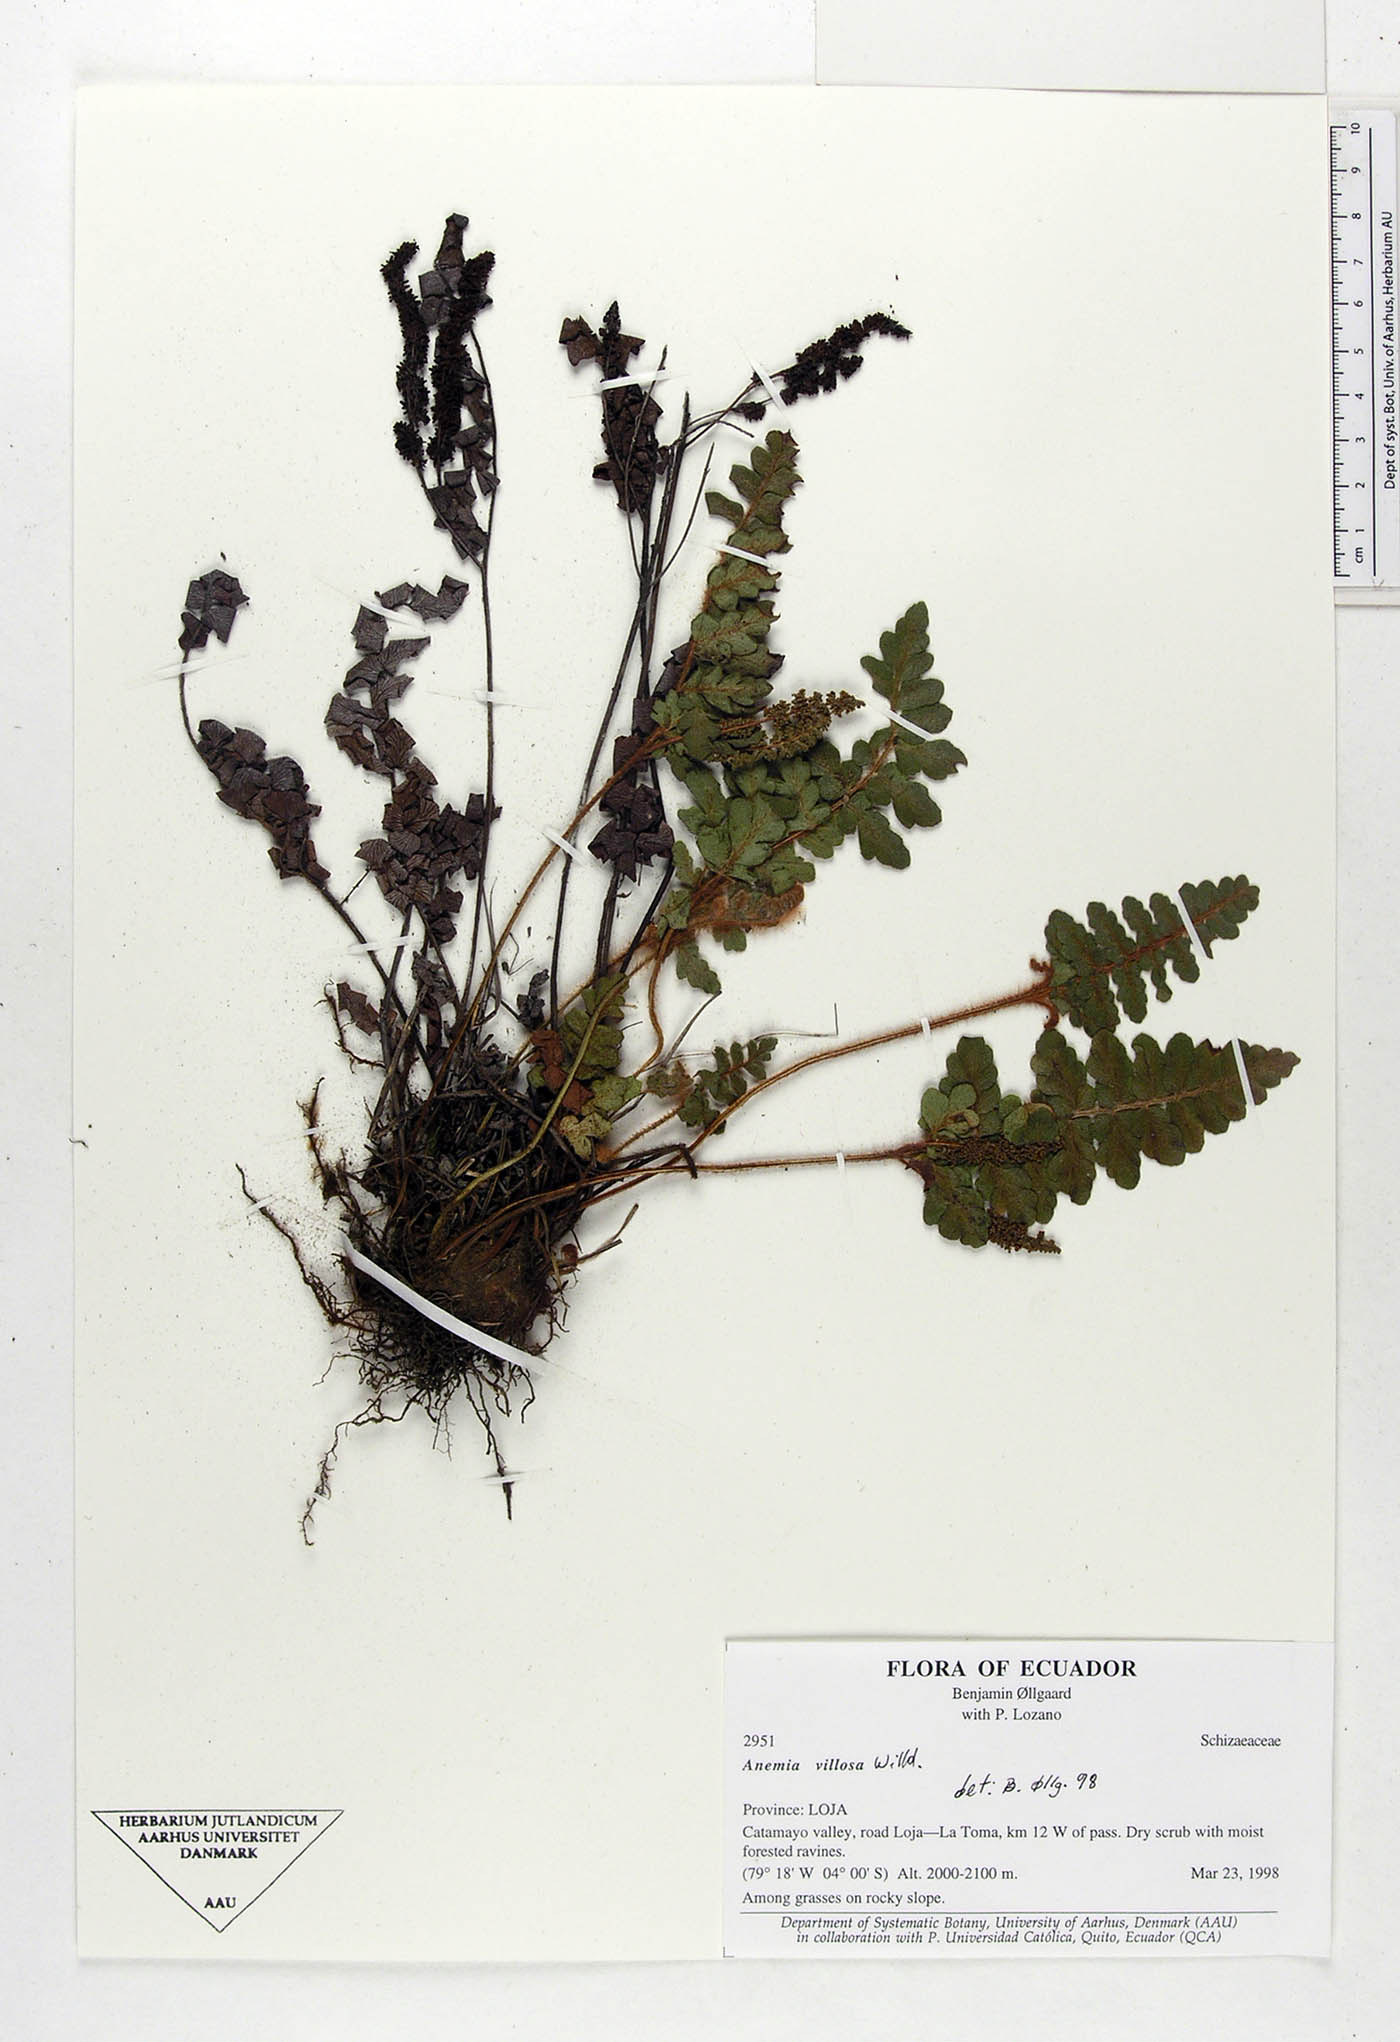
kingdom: Plantae
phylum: Tracheophyta
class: Polypodiopsida
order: Schizaeales
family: Anemiaceae
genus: Anemia
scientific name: Anemia villosa
